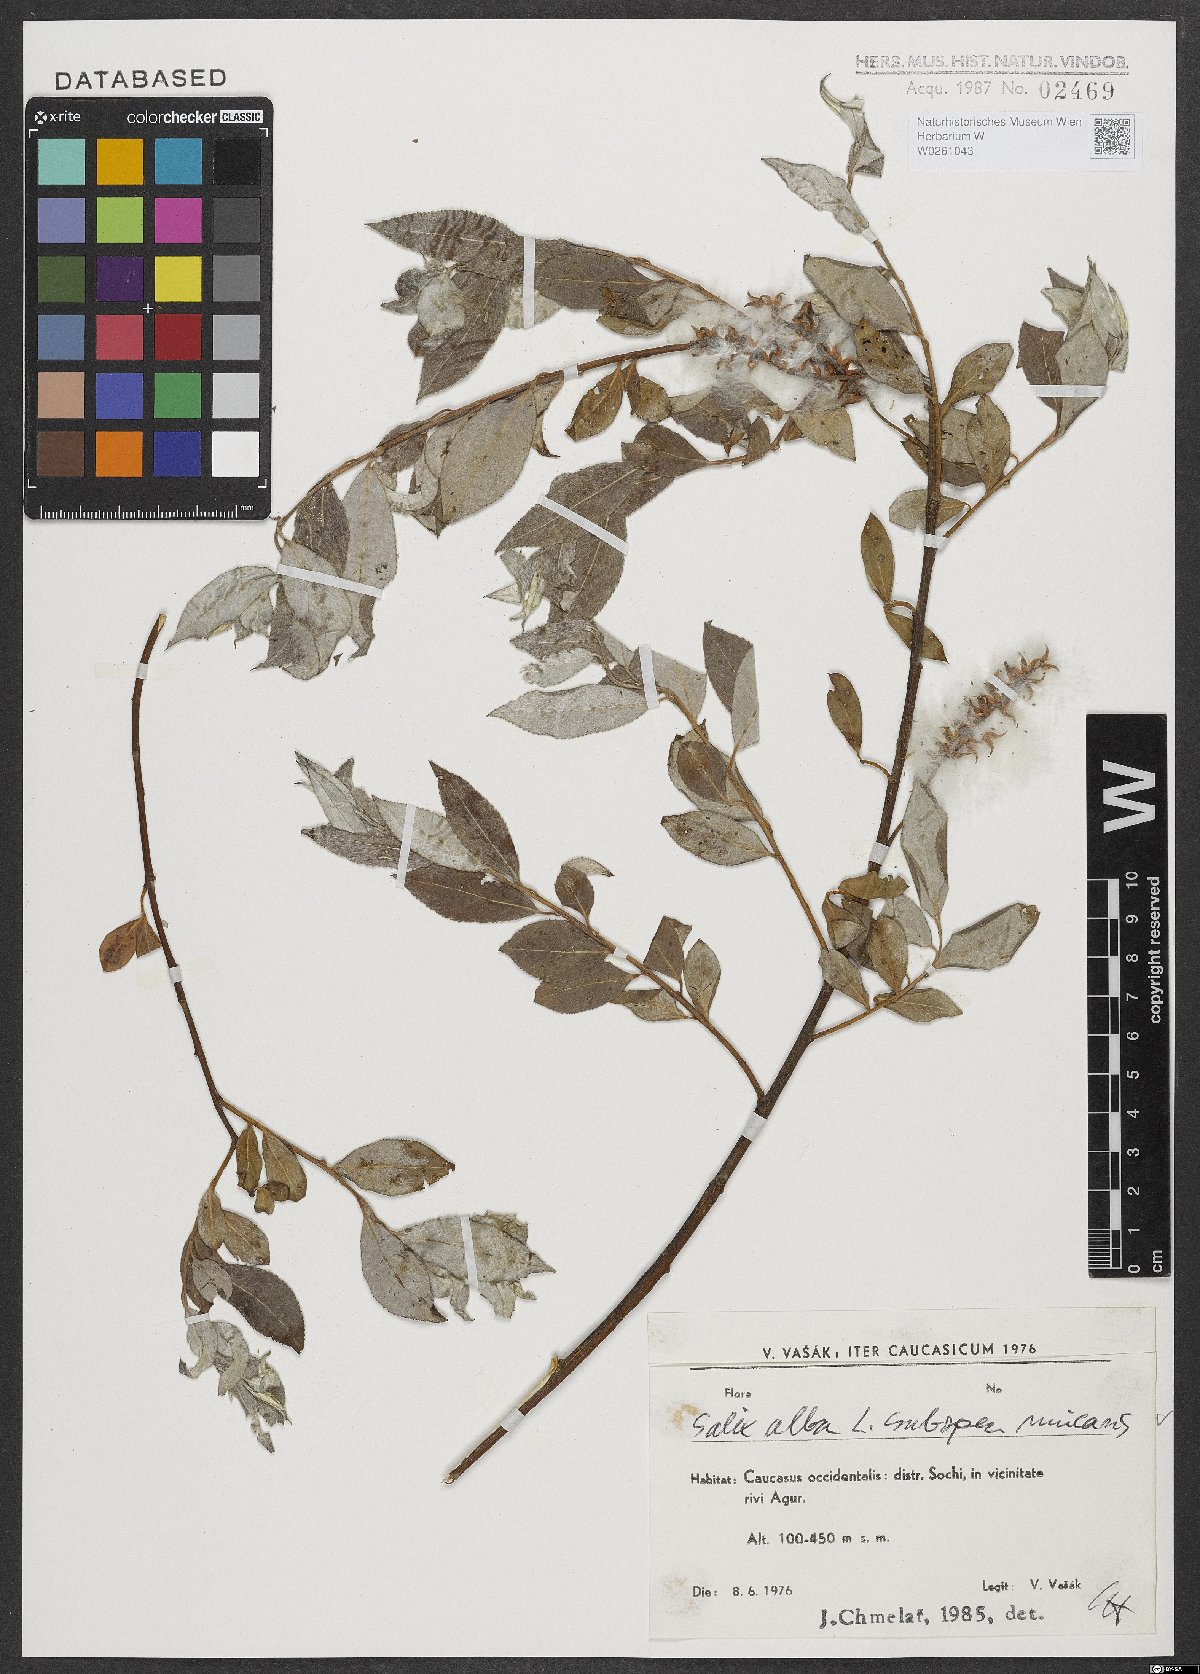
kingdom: Plantae
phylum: Tracheophyta
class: Magnoliopsida
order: Malpighiales
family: Salicaceae
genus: Salix
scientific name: Salix alba
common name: White willow
